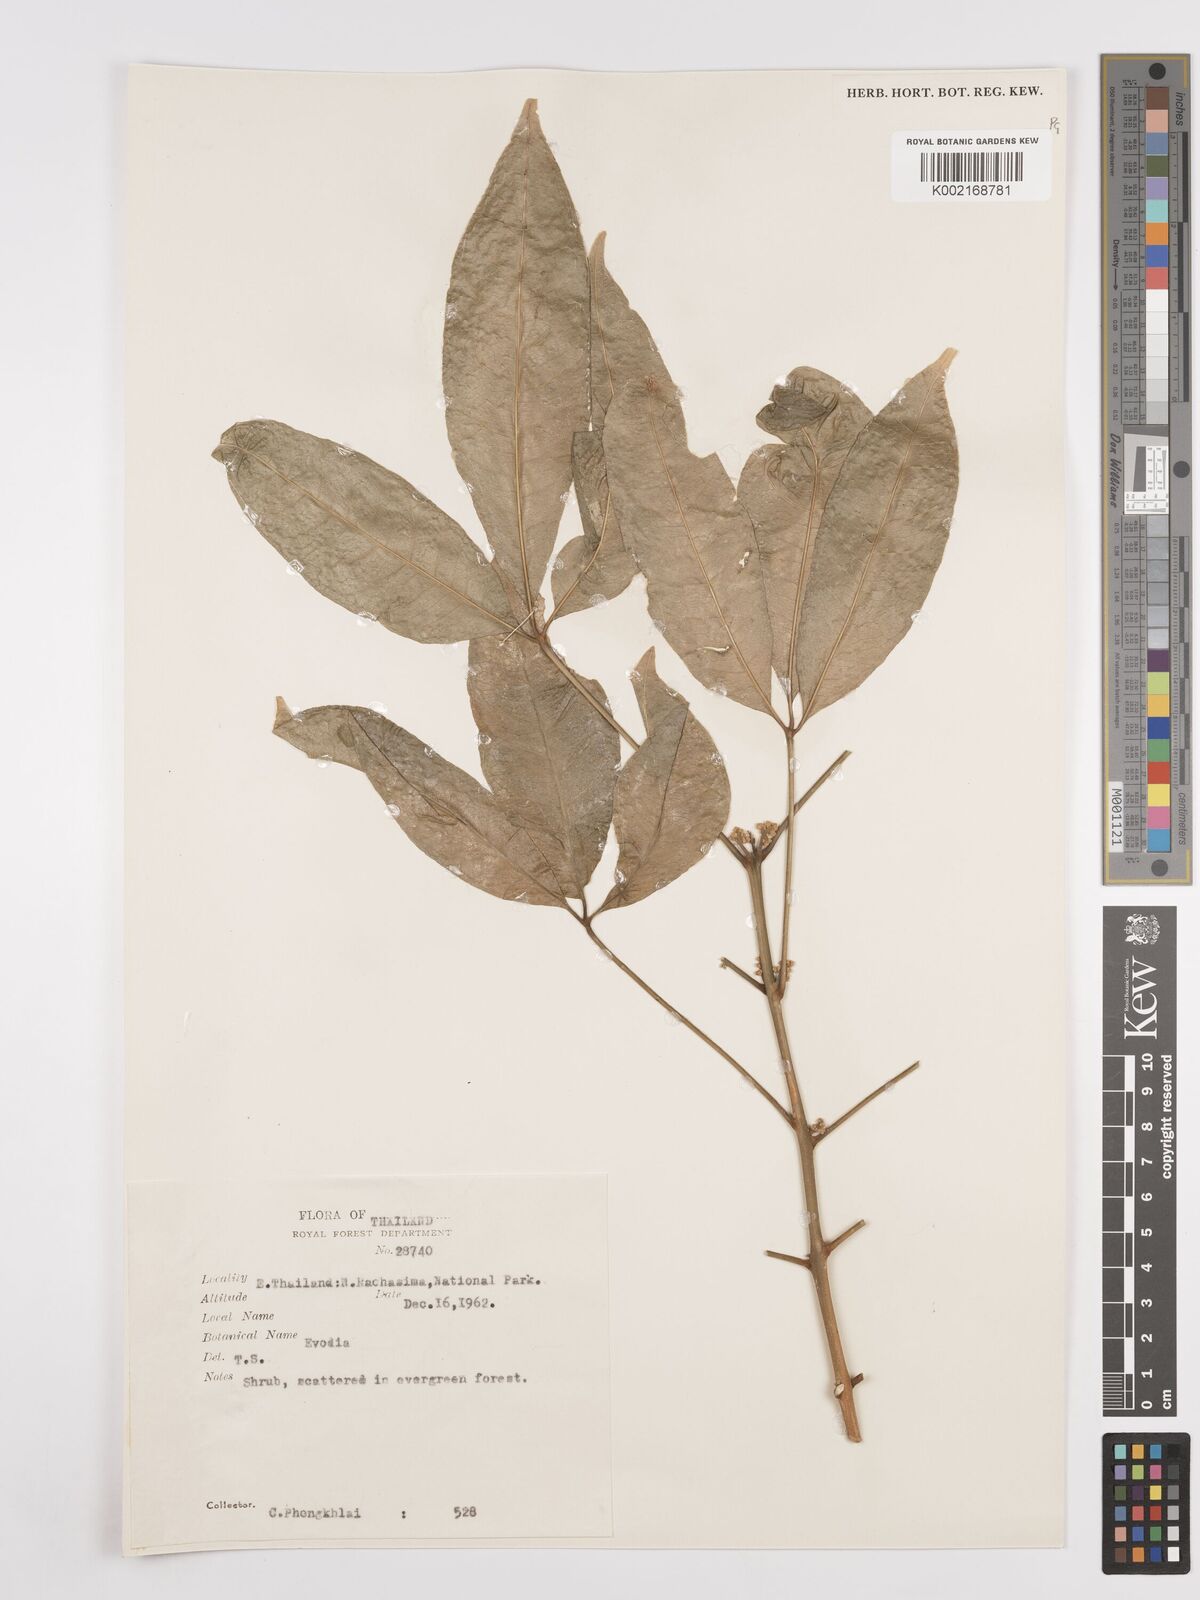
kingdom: Plantae
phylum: Tracheophyta
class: Magnoliopsida
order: Sapindales
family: Rutaceae
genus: Euodia
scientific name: Euodia
